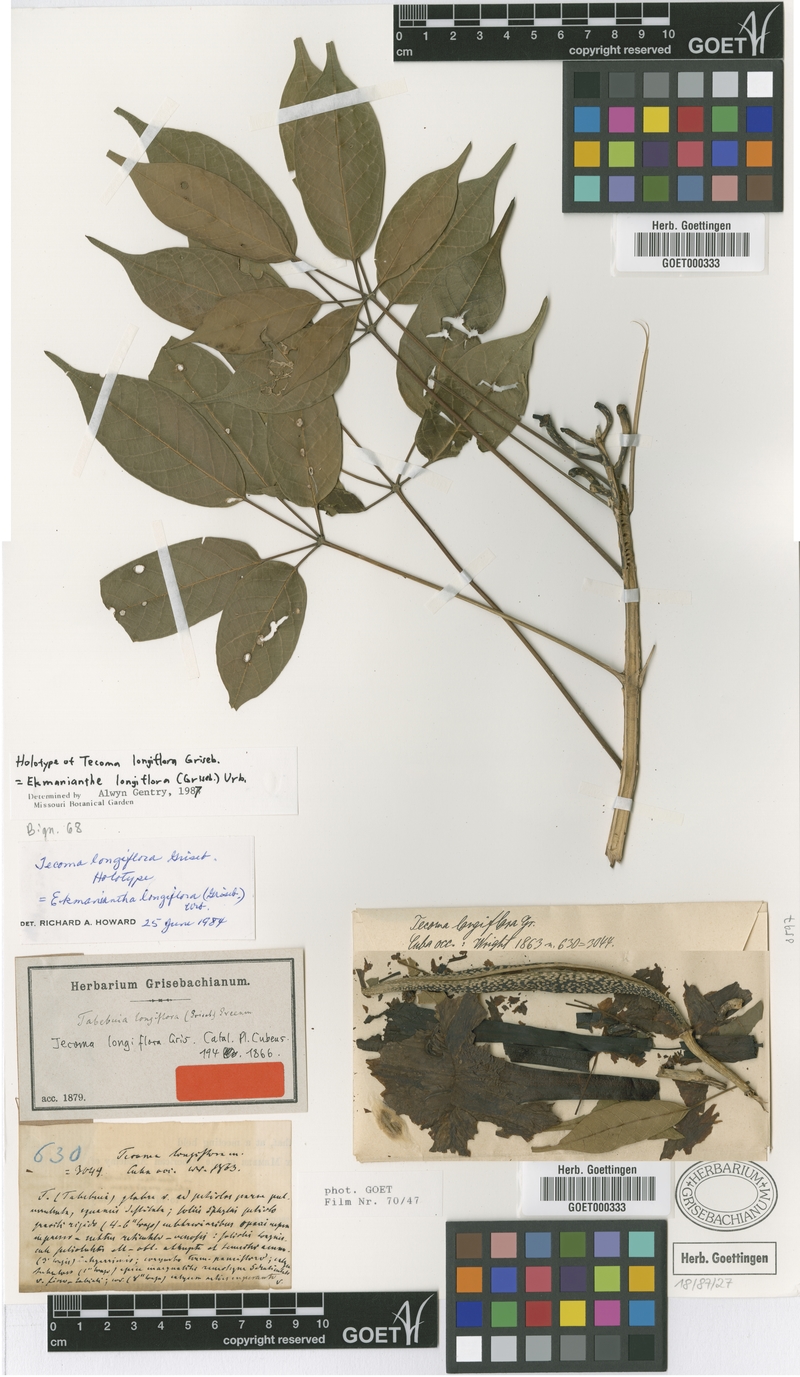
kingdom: Plantae
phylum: Tracheophyta
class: Magnoliopsida
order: Lamiales
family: Bignoniaceae
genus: Ekmanianthe
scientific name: Ekmanianthe longiflora
